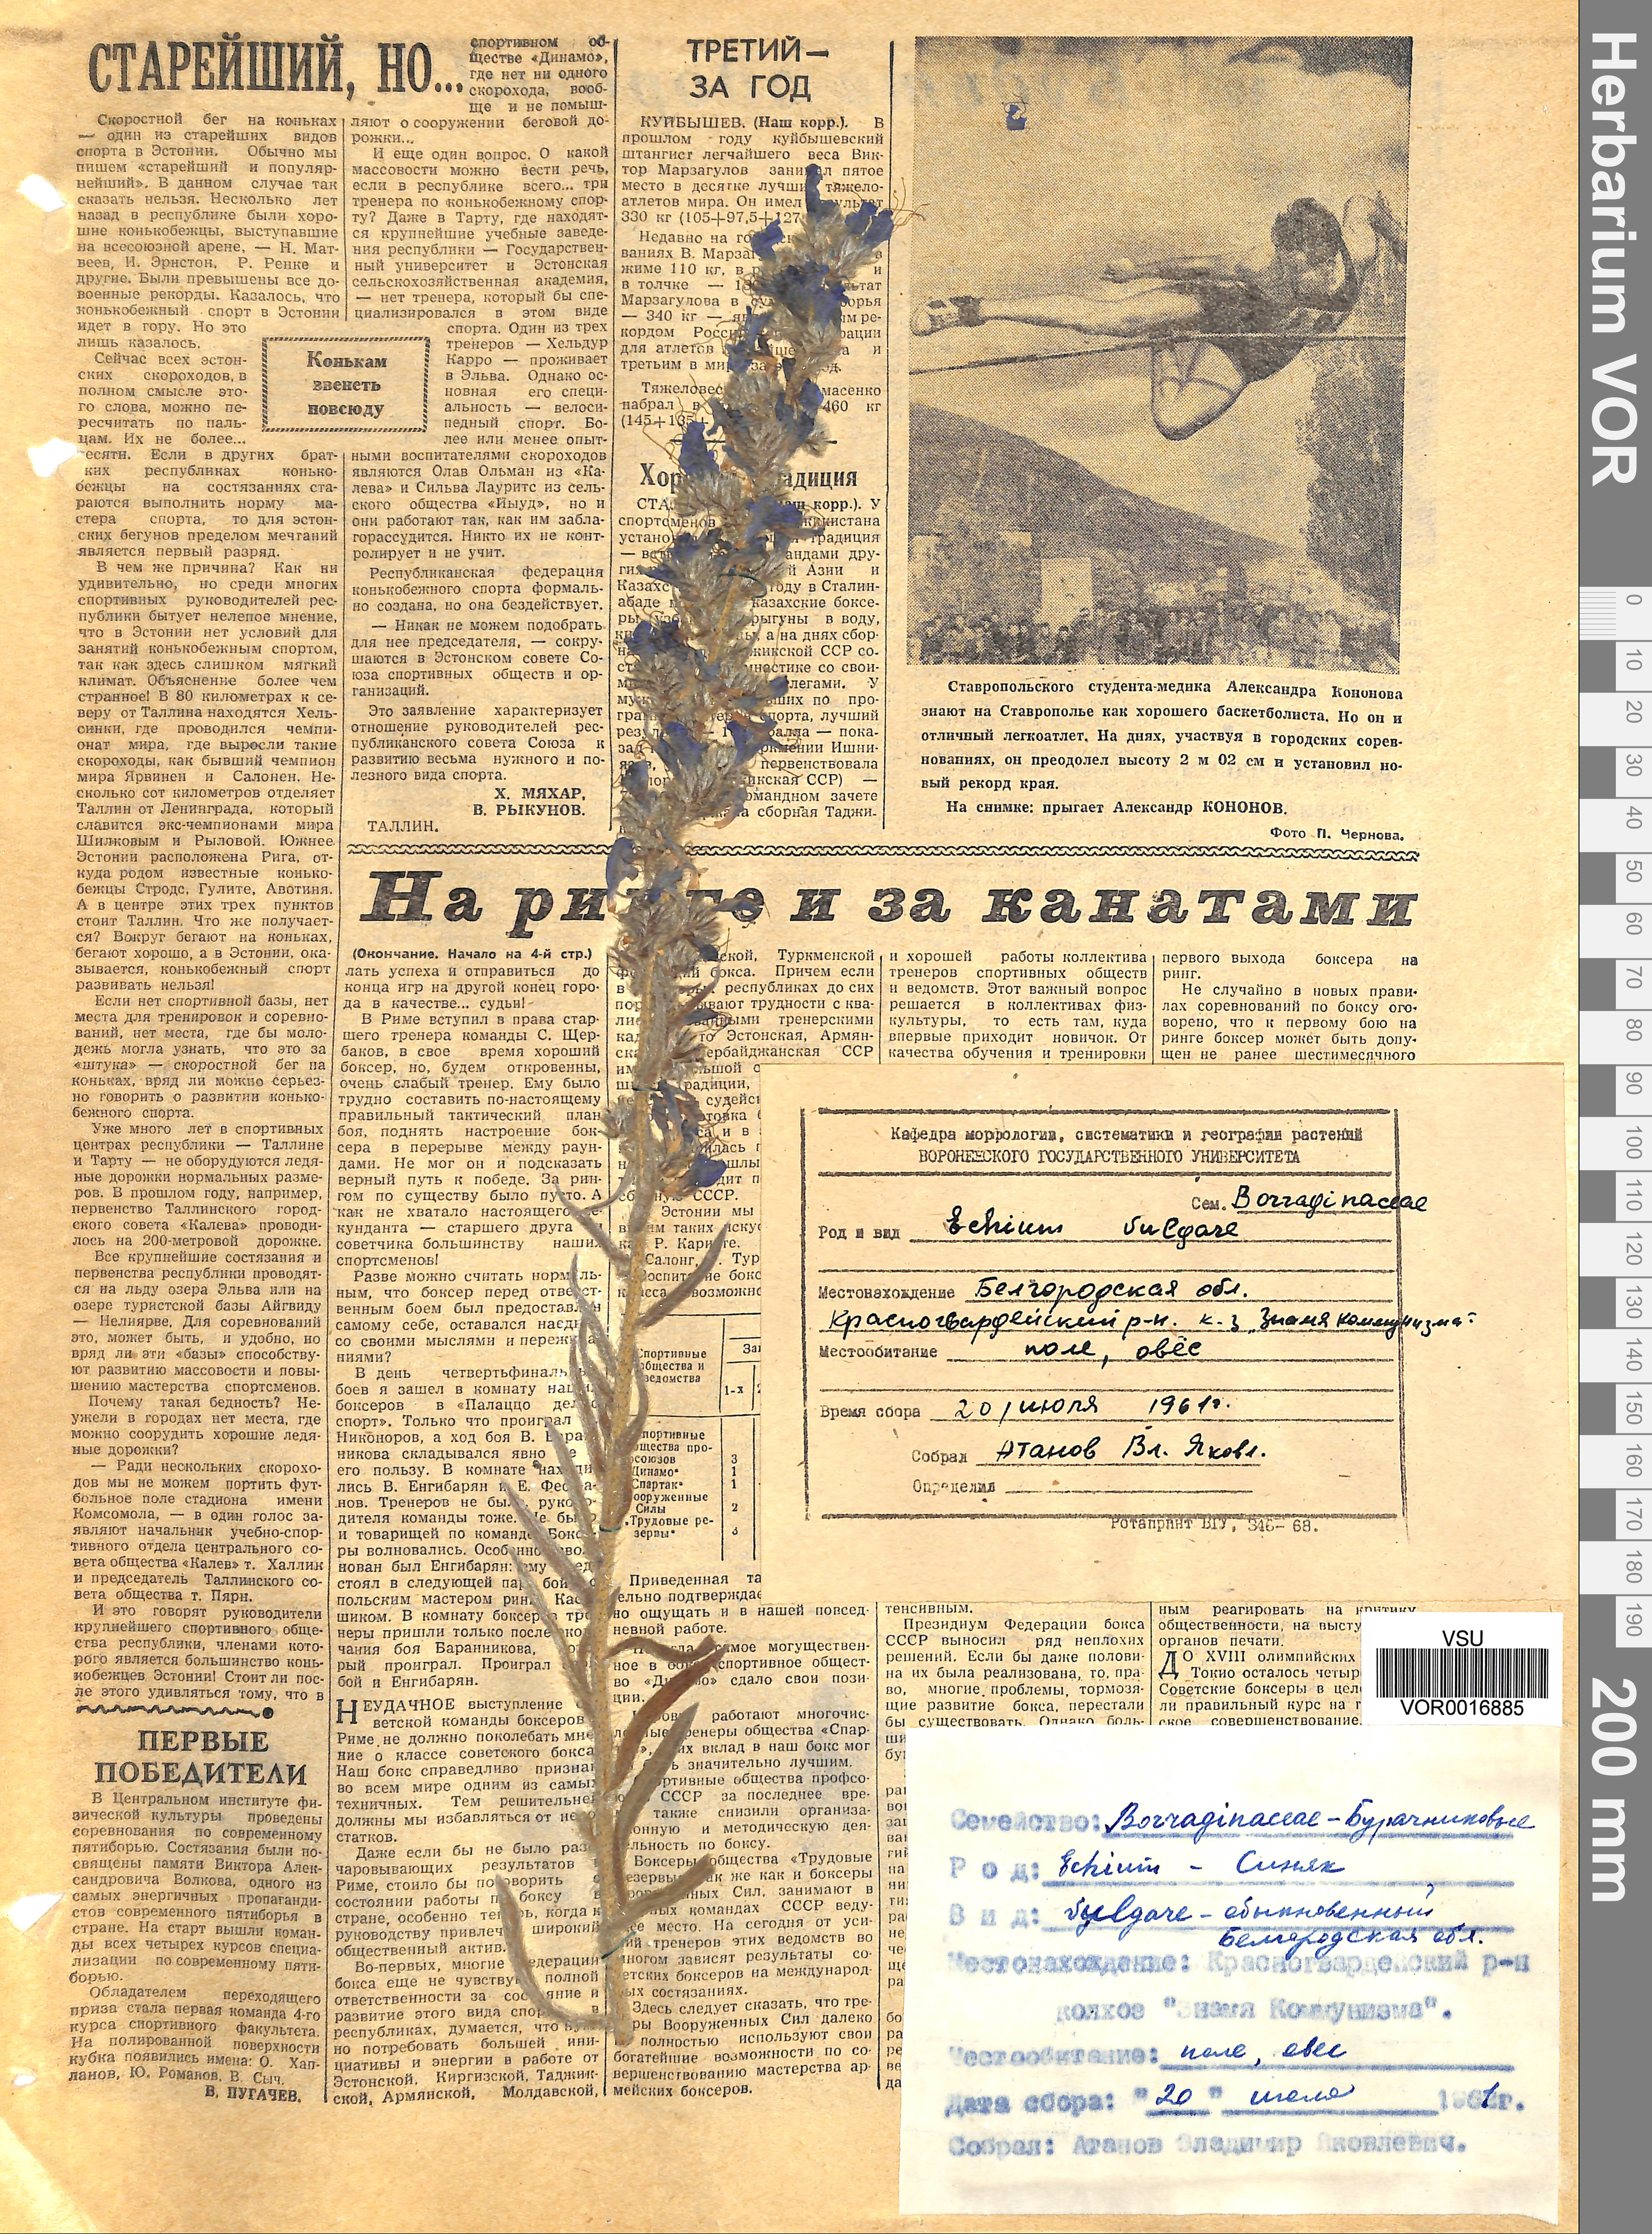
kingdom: Plantae
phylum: Tracheophyta
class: Magnoliopsida
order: Boraginales
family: Boraginaceae
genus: Echium
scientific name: Echium vulgare
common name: Common viper's bugloss
